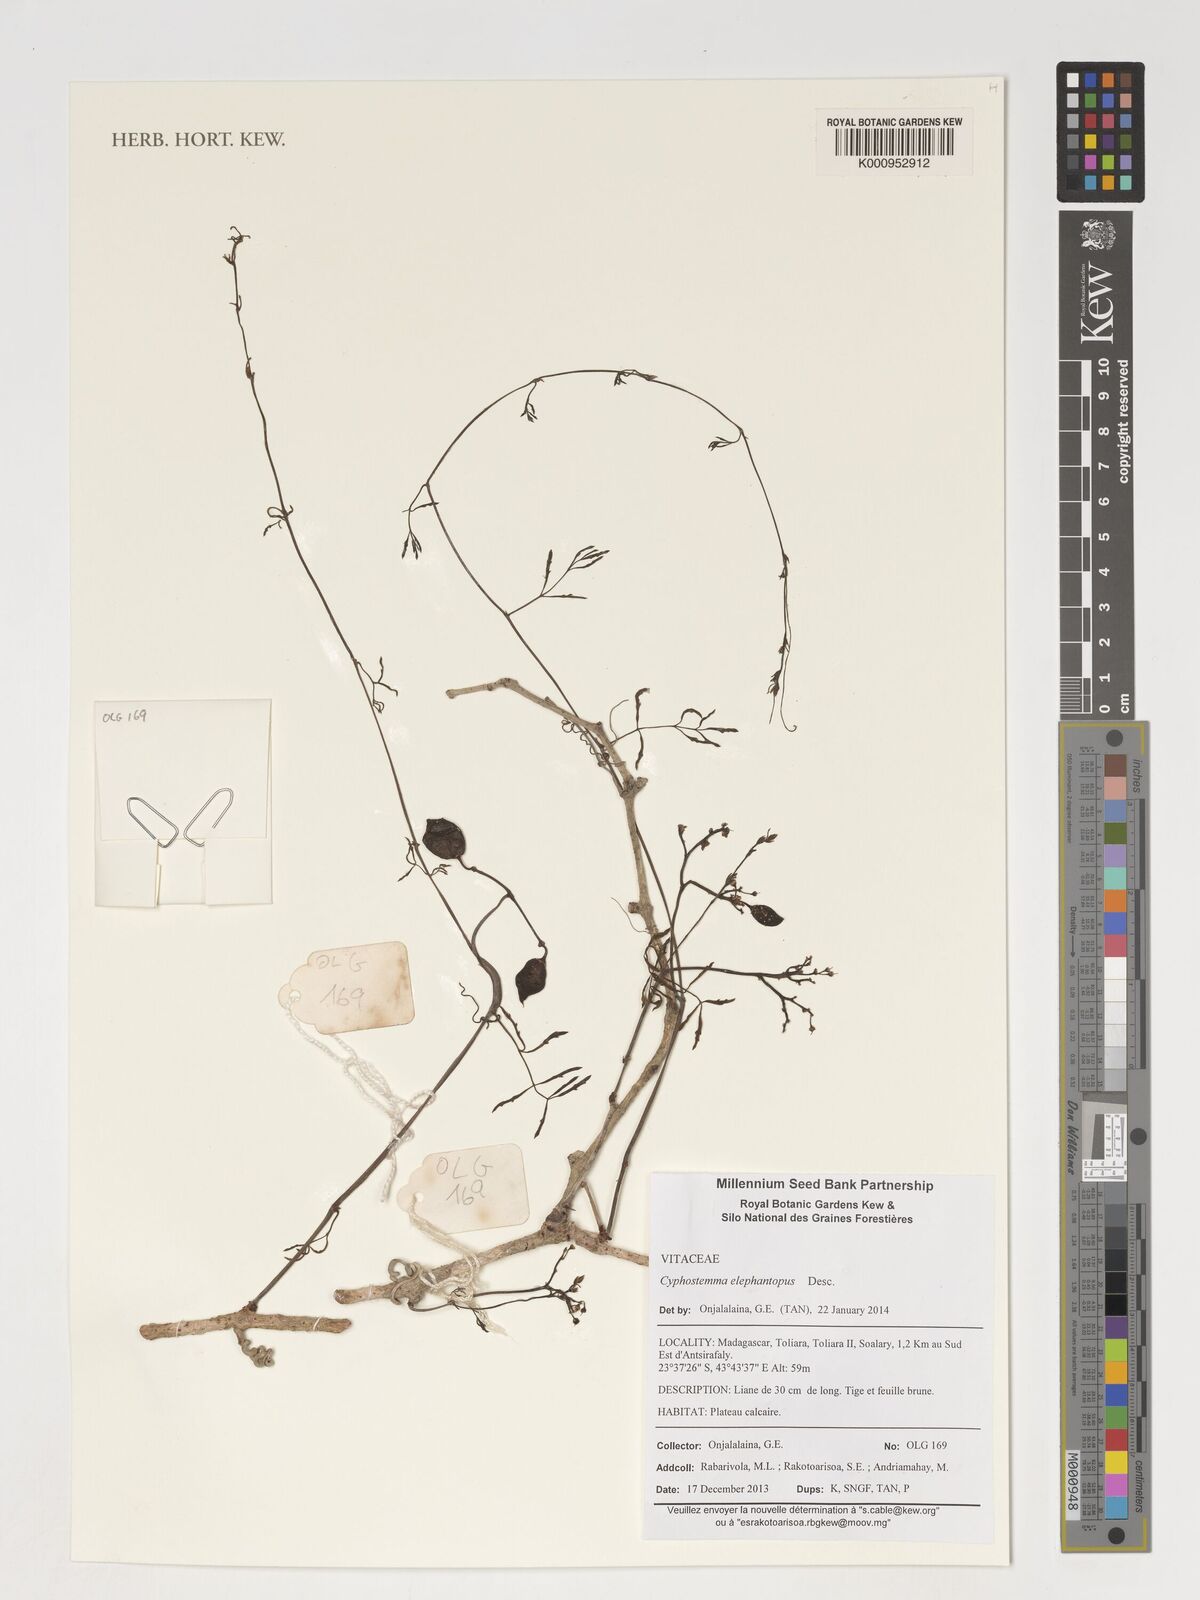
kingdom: Plantae
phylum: Tracheophyta
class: Magnoliopsida
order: Vitales
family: Vitaceae
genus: Cyphostemma
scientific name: Cyphostemma elephantopus
